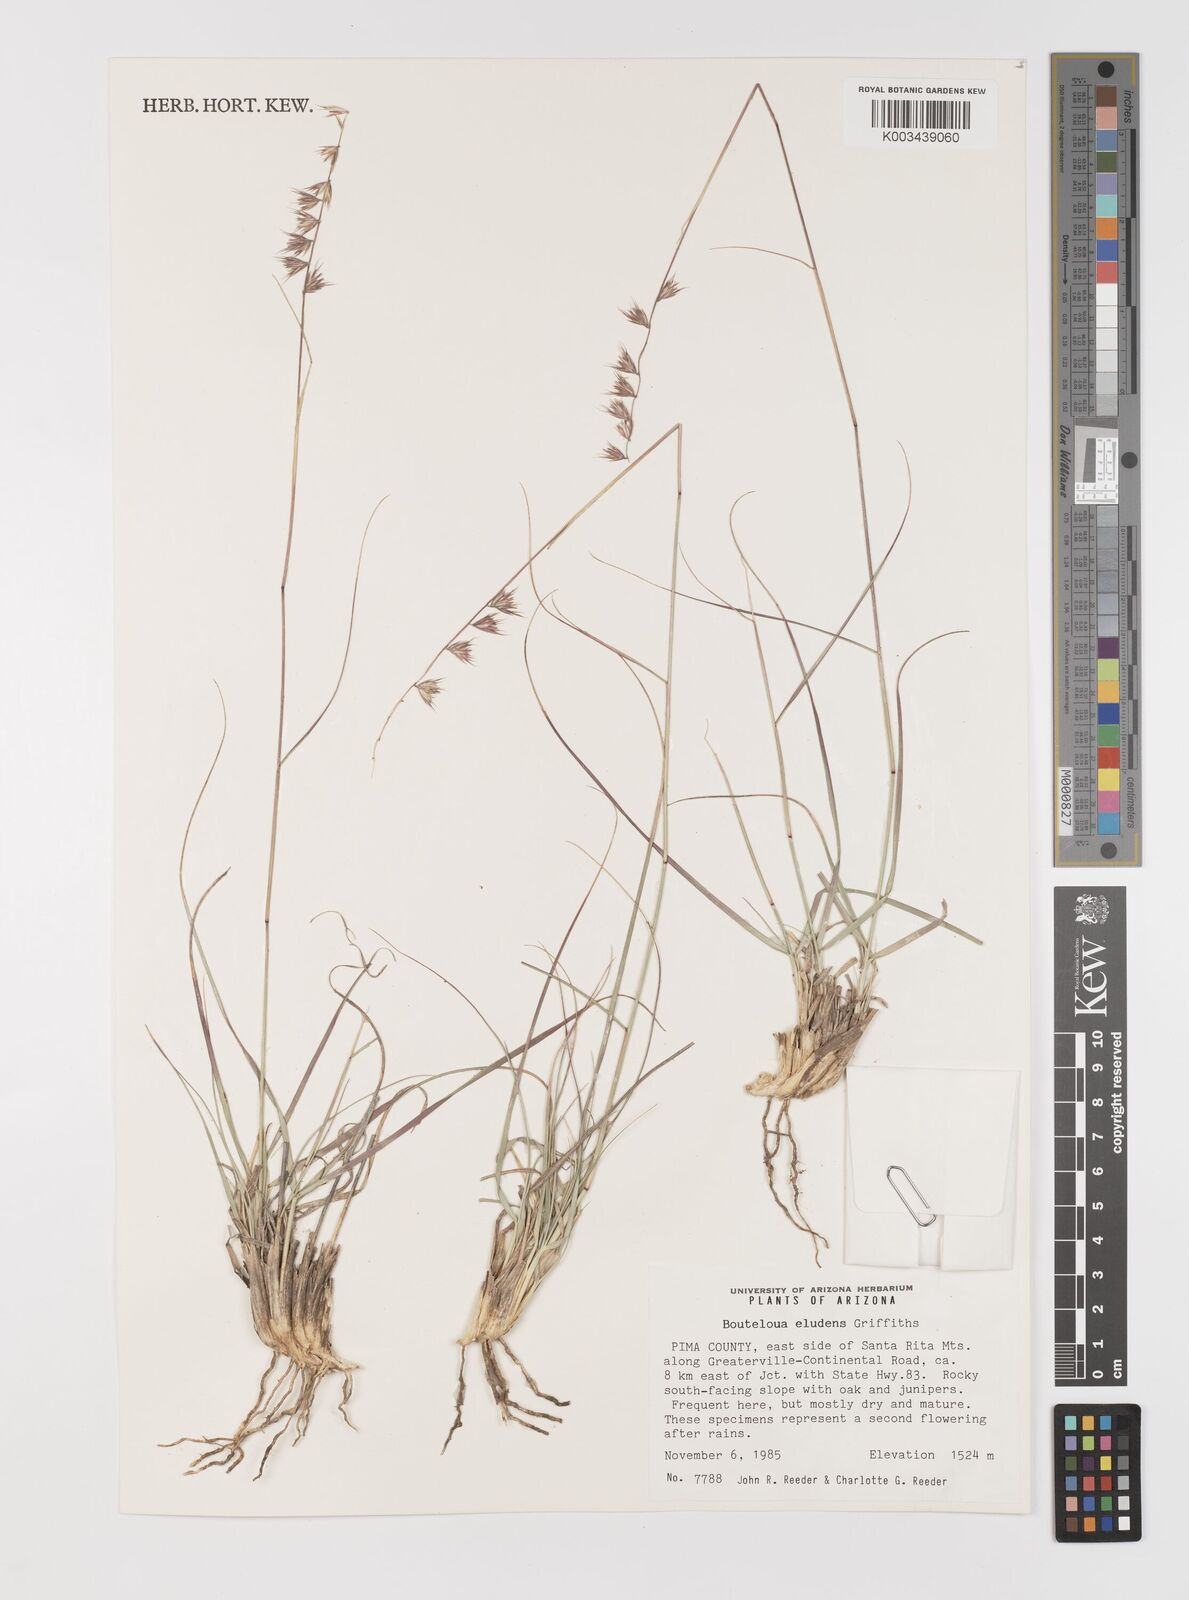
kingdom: Plantae
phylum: Tracheophyta
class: Liliopsida
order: Poales
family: Poaceae
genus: Bouteloua
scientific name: Bouteloua eludens
